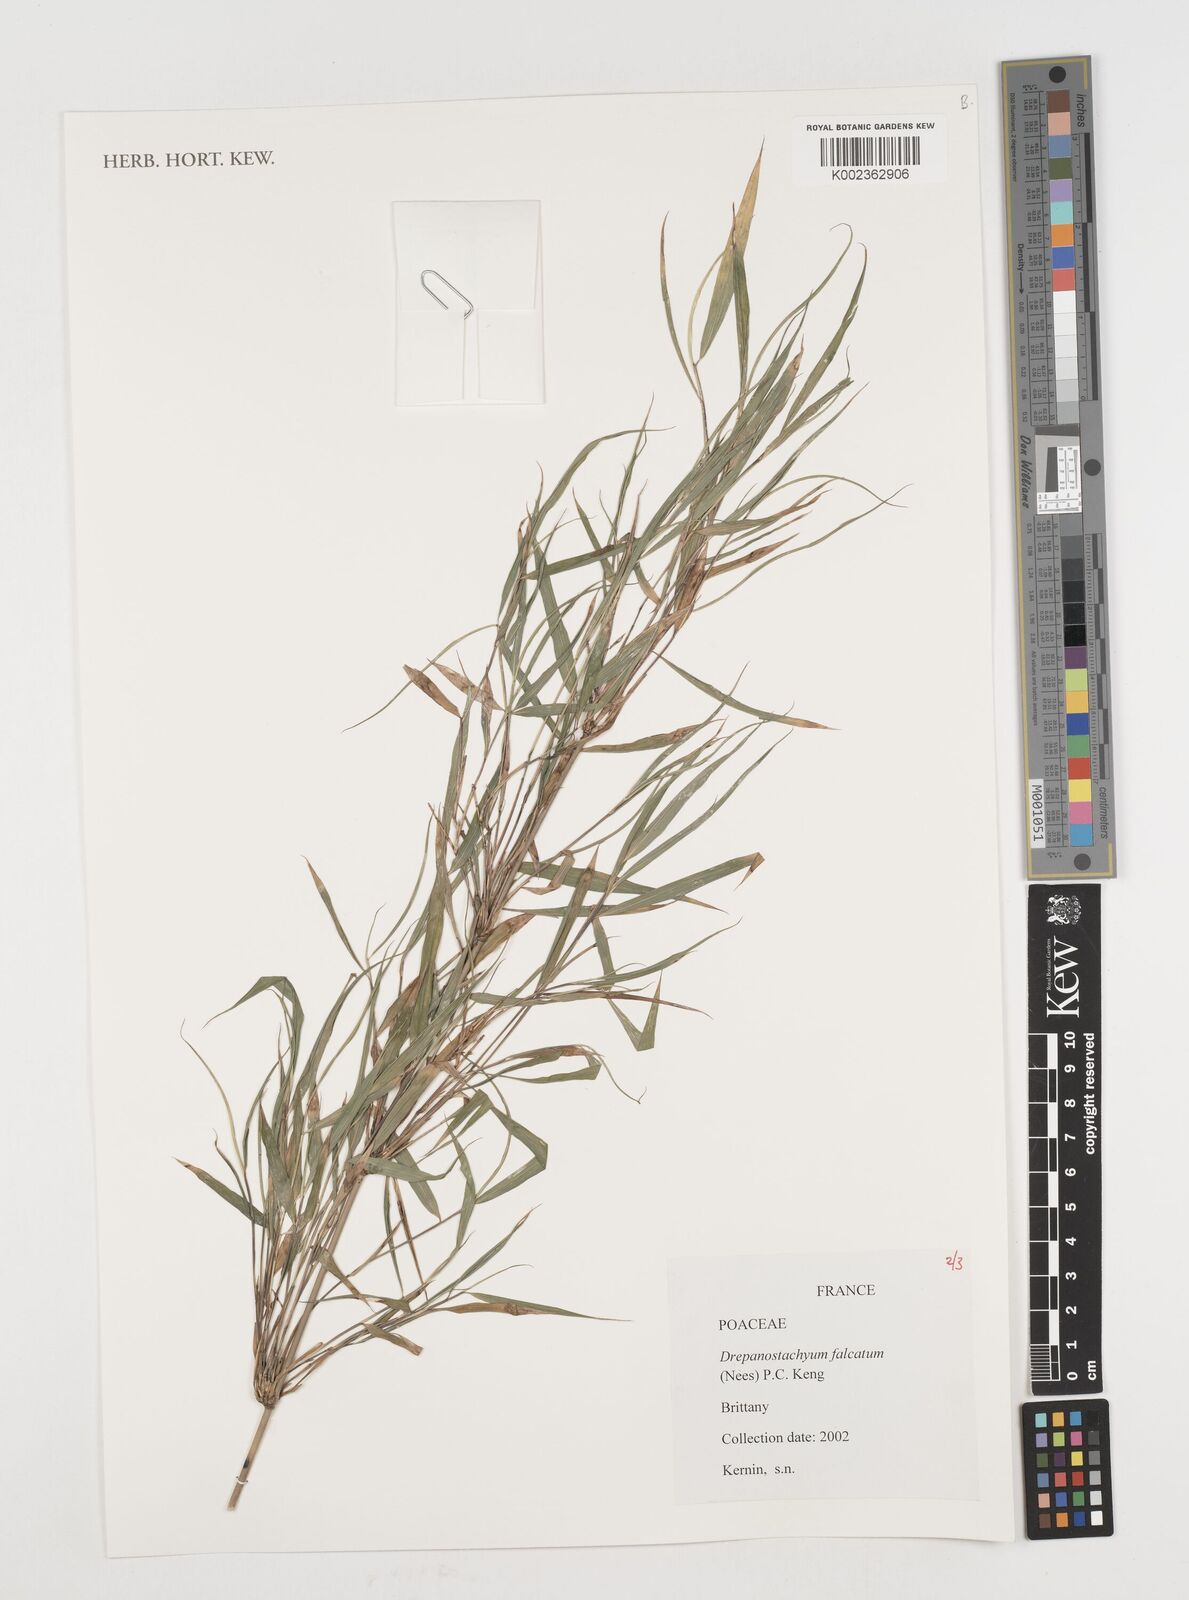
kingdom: Plantae
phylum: Tracheophyta
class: Liliopsida
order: Poales
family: Poaceae
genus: Drepanostachyum
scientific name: Drepanostachyum falcatum
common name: Himalayan bamboo
